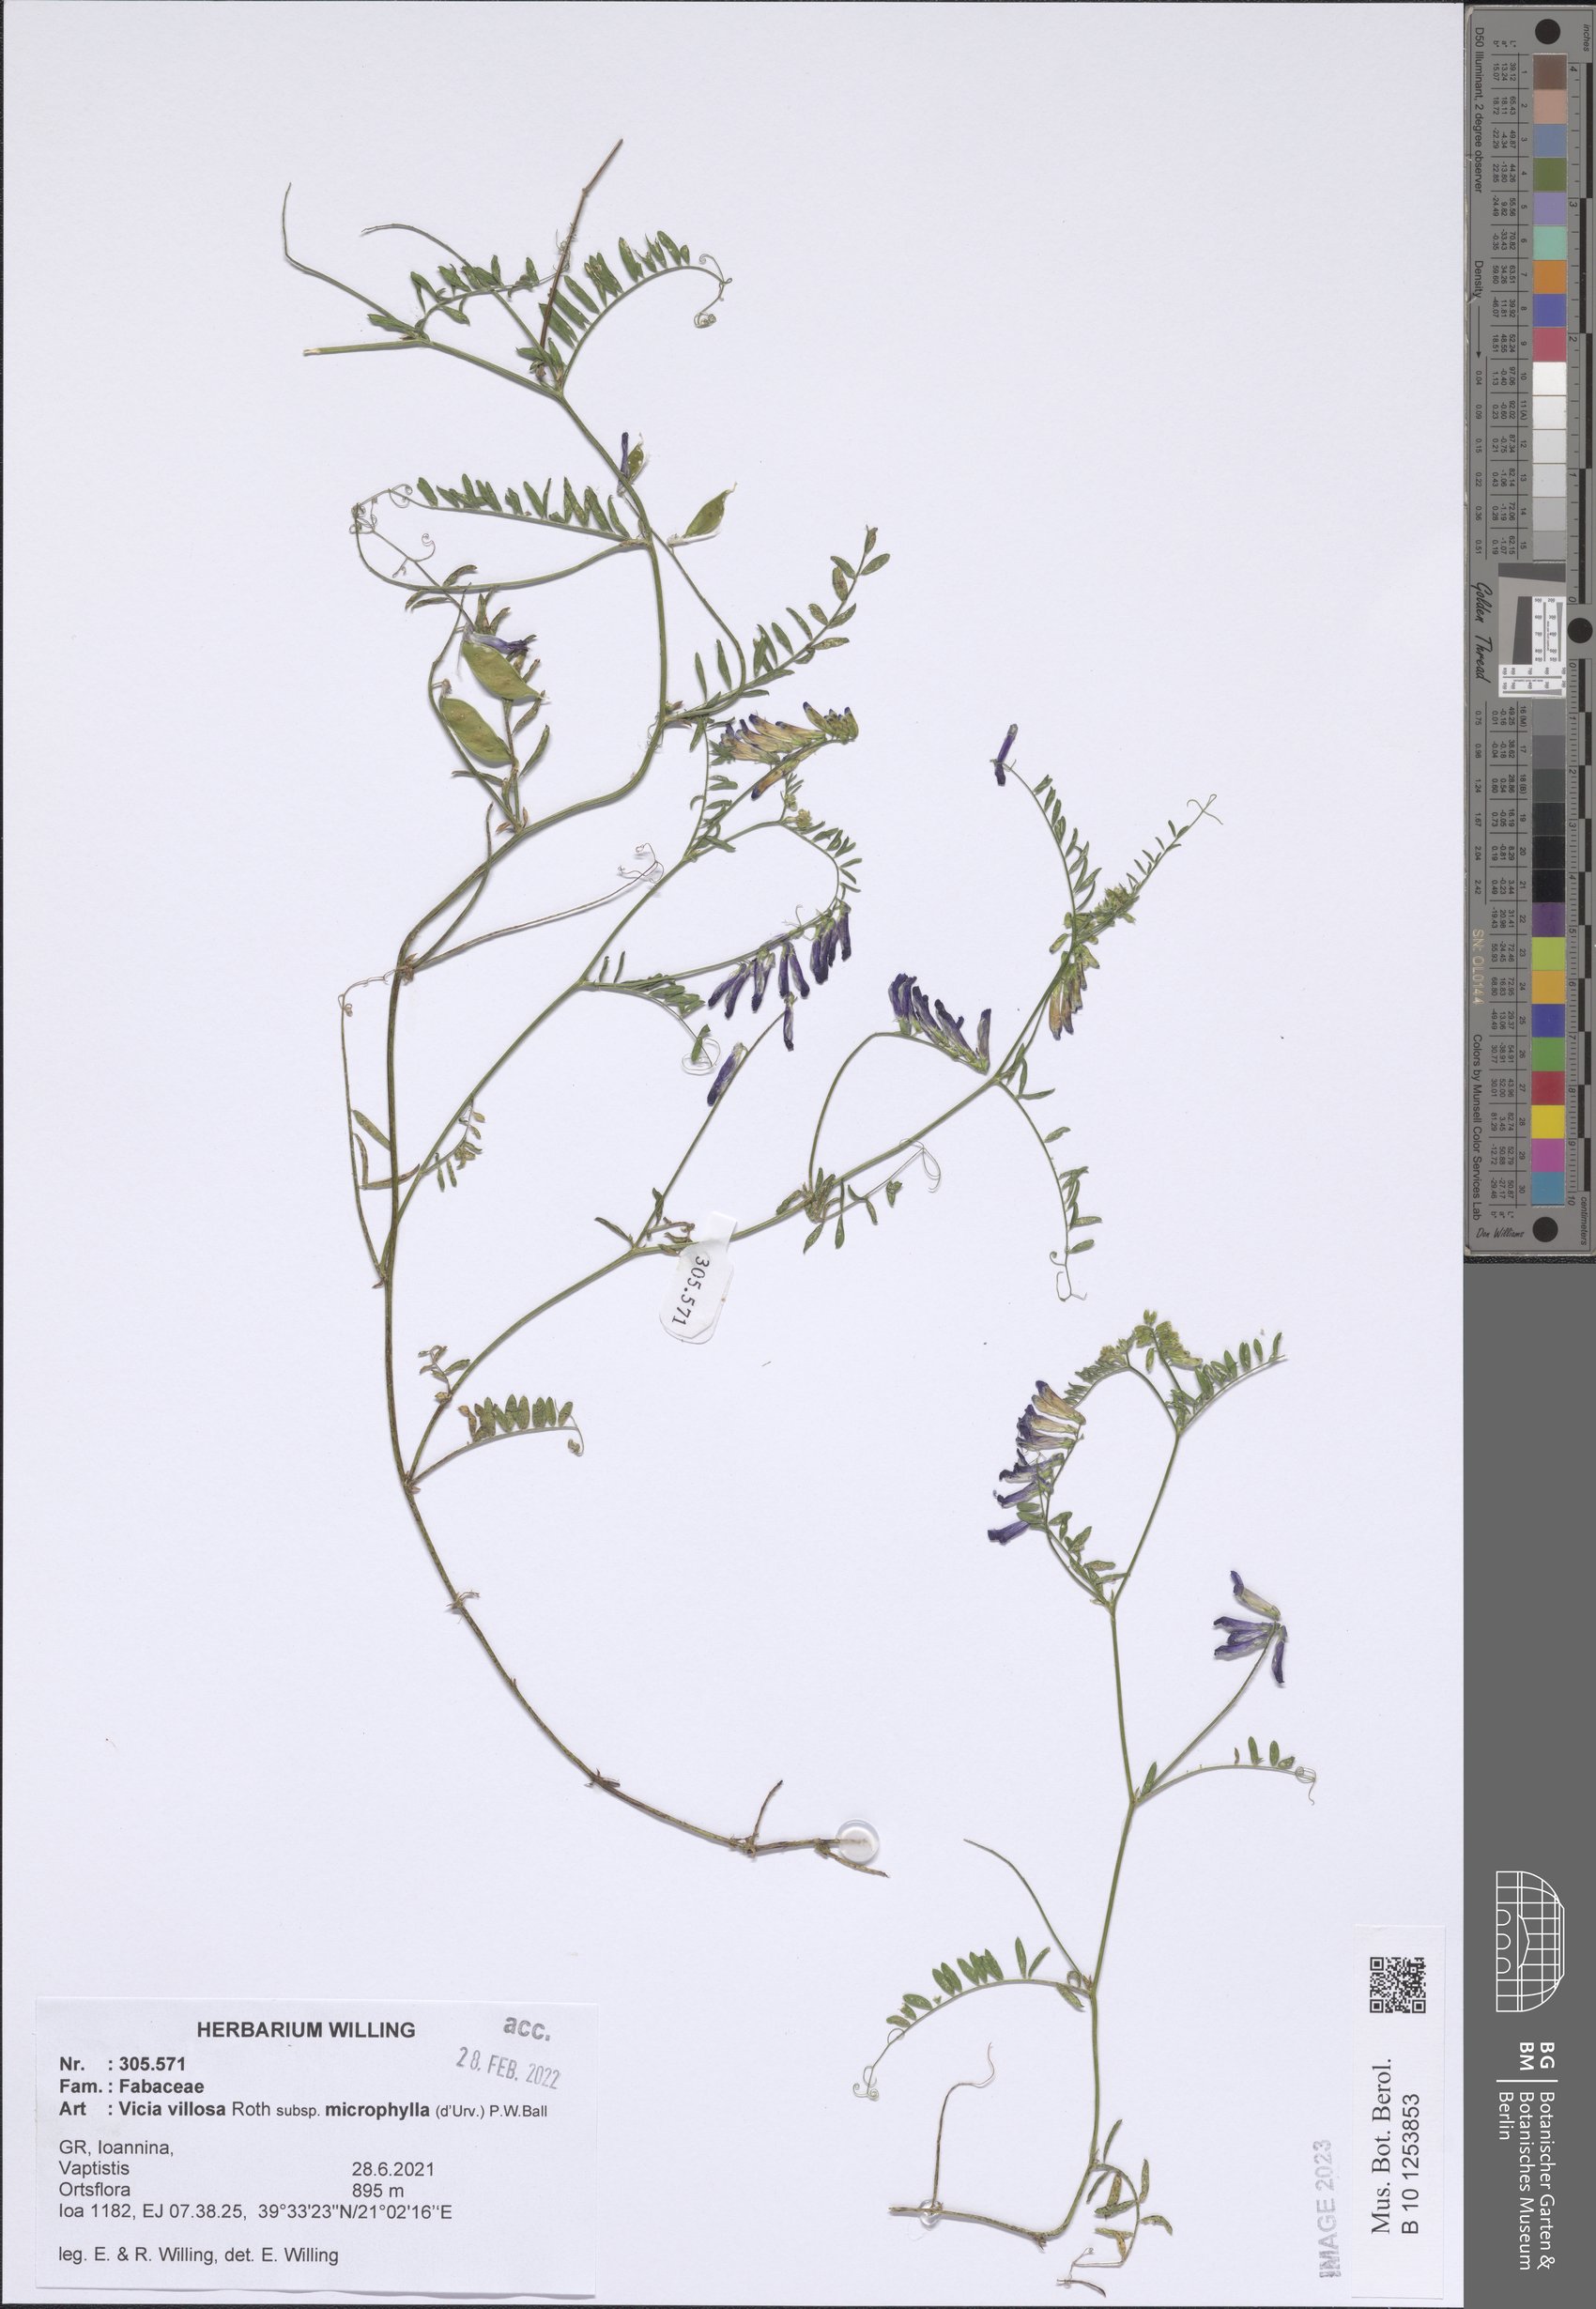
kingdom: Plantae
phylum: Tracheophyta
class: Magnoliopsida
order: Fabales
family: Fabaceae
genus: Vicia
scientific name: Vicia villosa
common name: Fodder vetch
